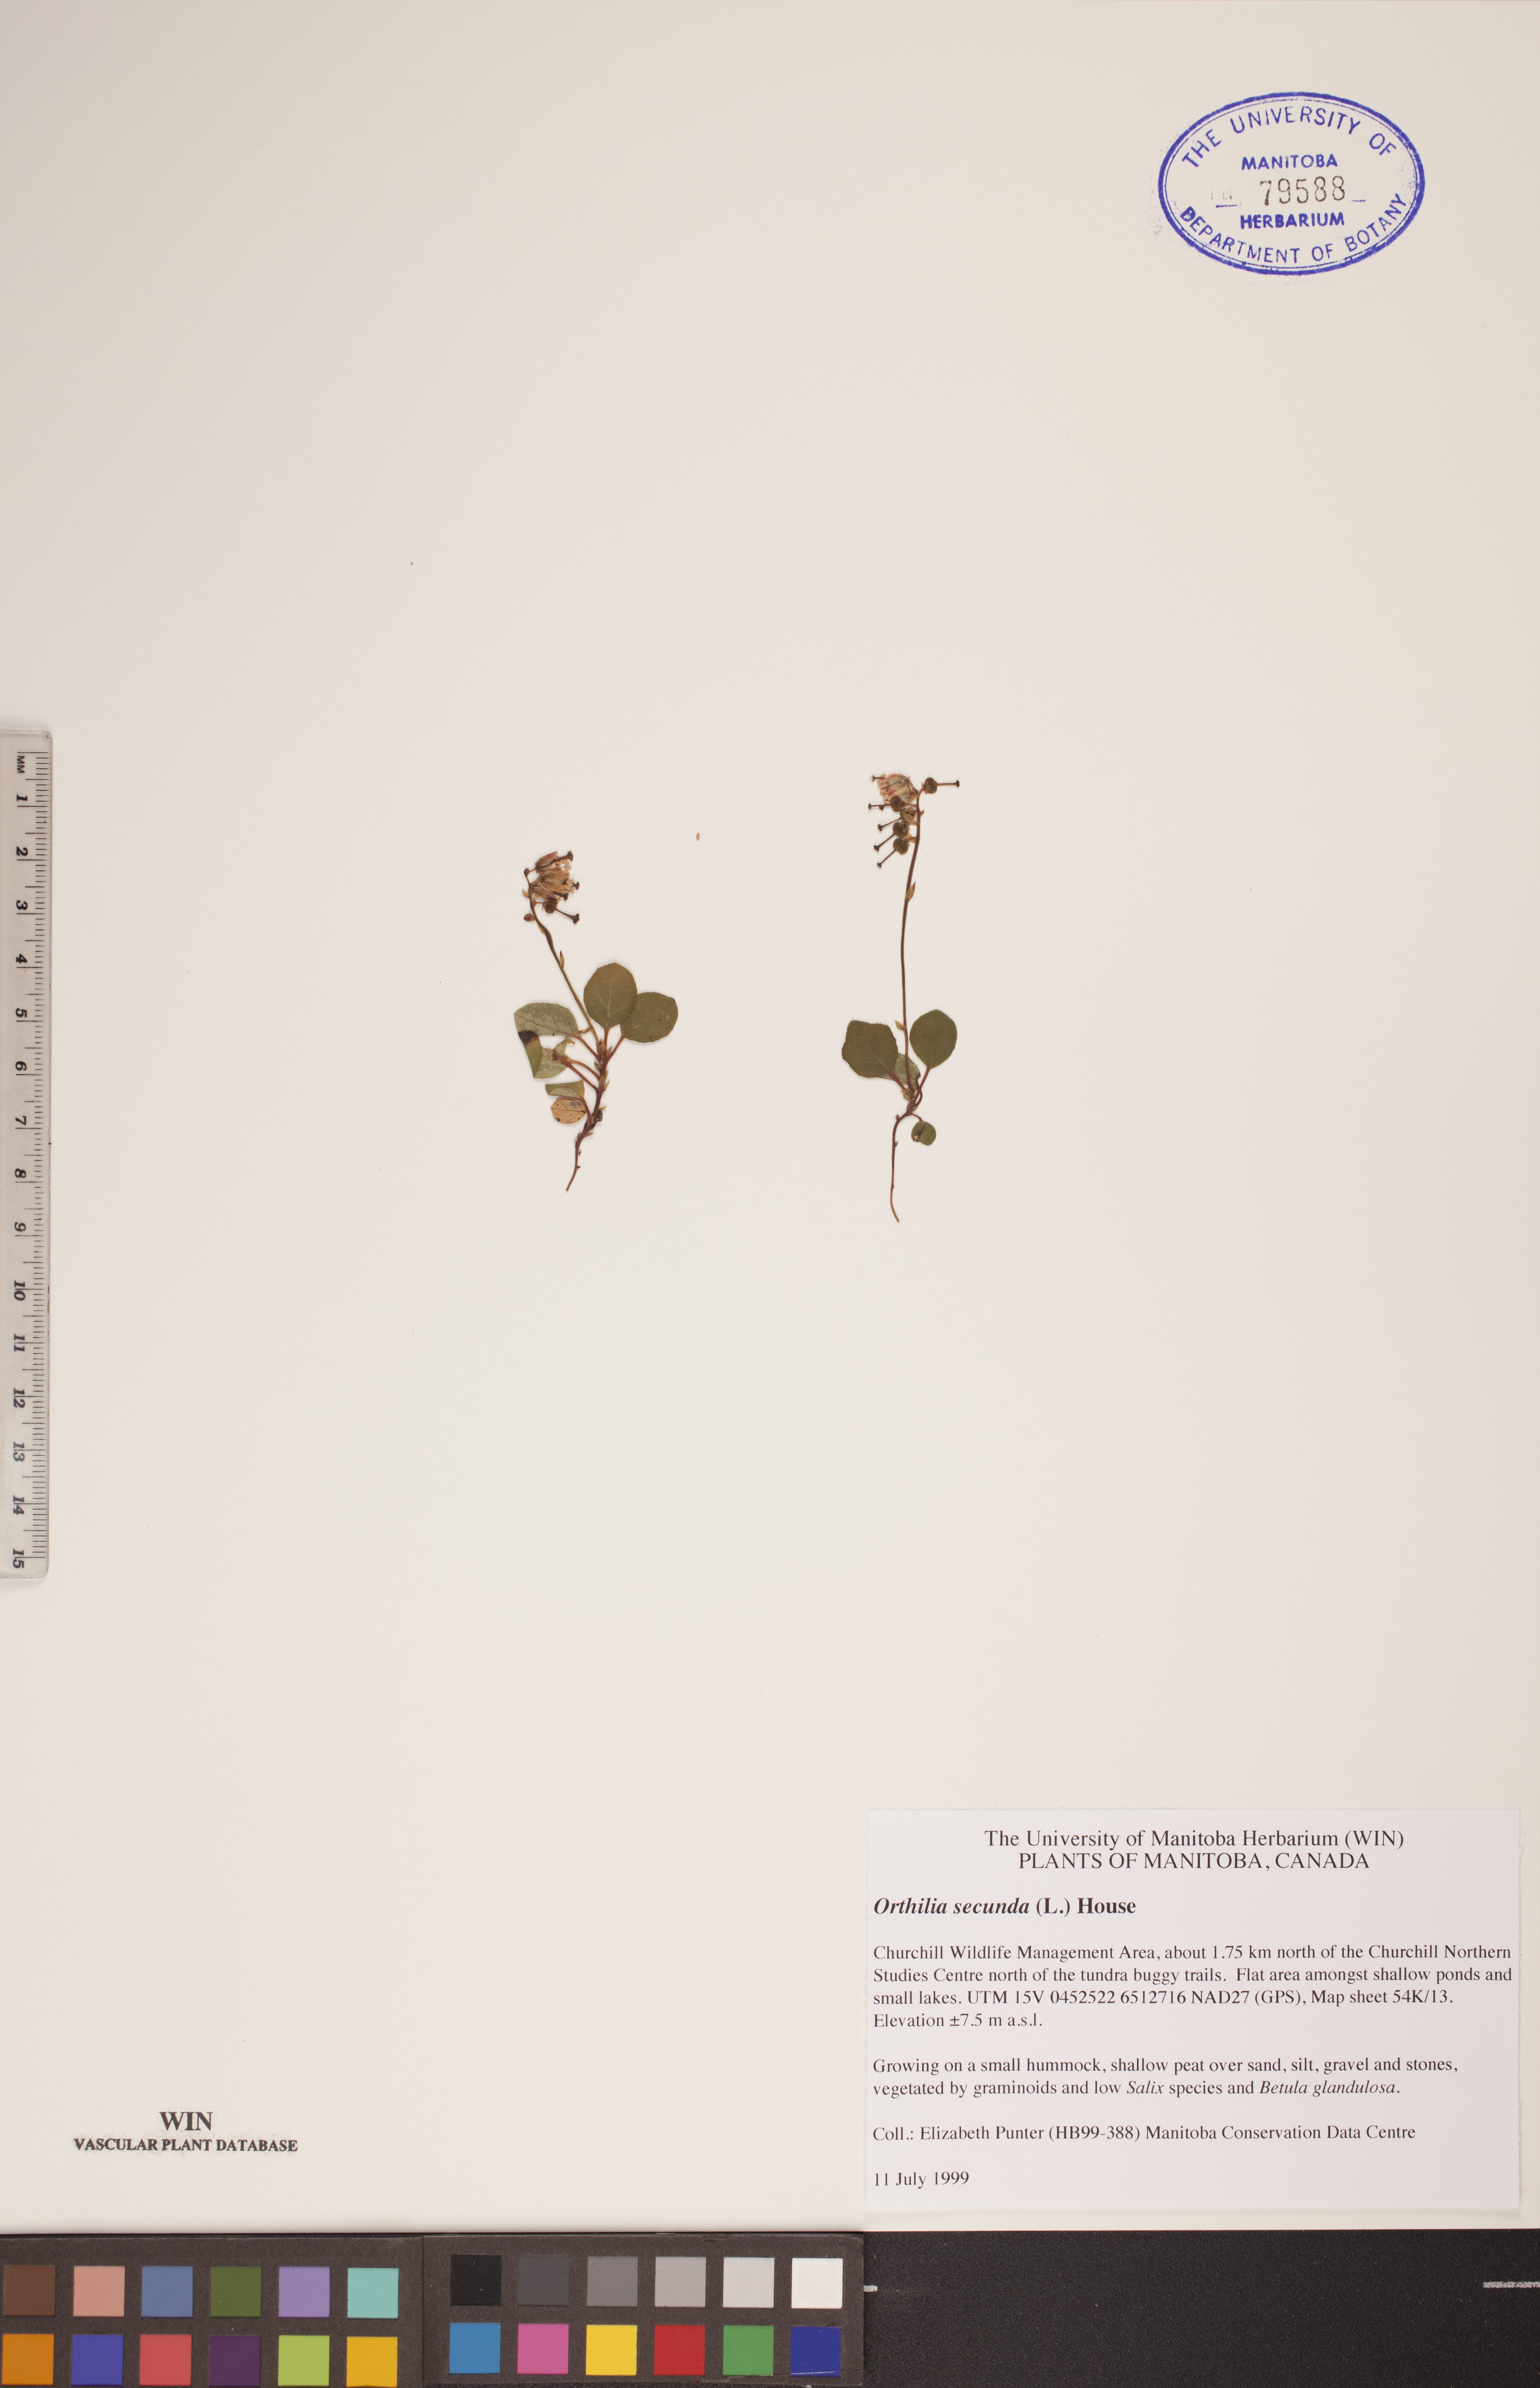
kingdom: Plantae
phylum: Tracheophyta
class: Magnoliopsida
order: Ericales
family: Ericaceae
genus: Orthilia
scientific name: Orthilia secunda
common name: One-sided orthilia
